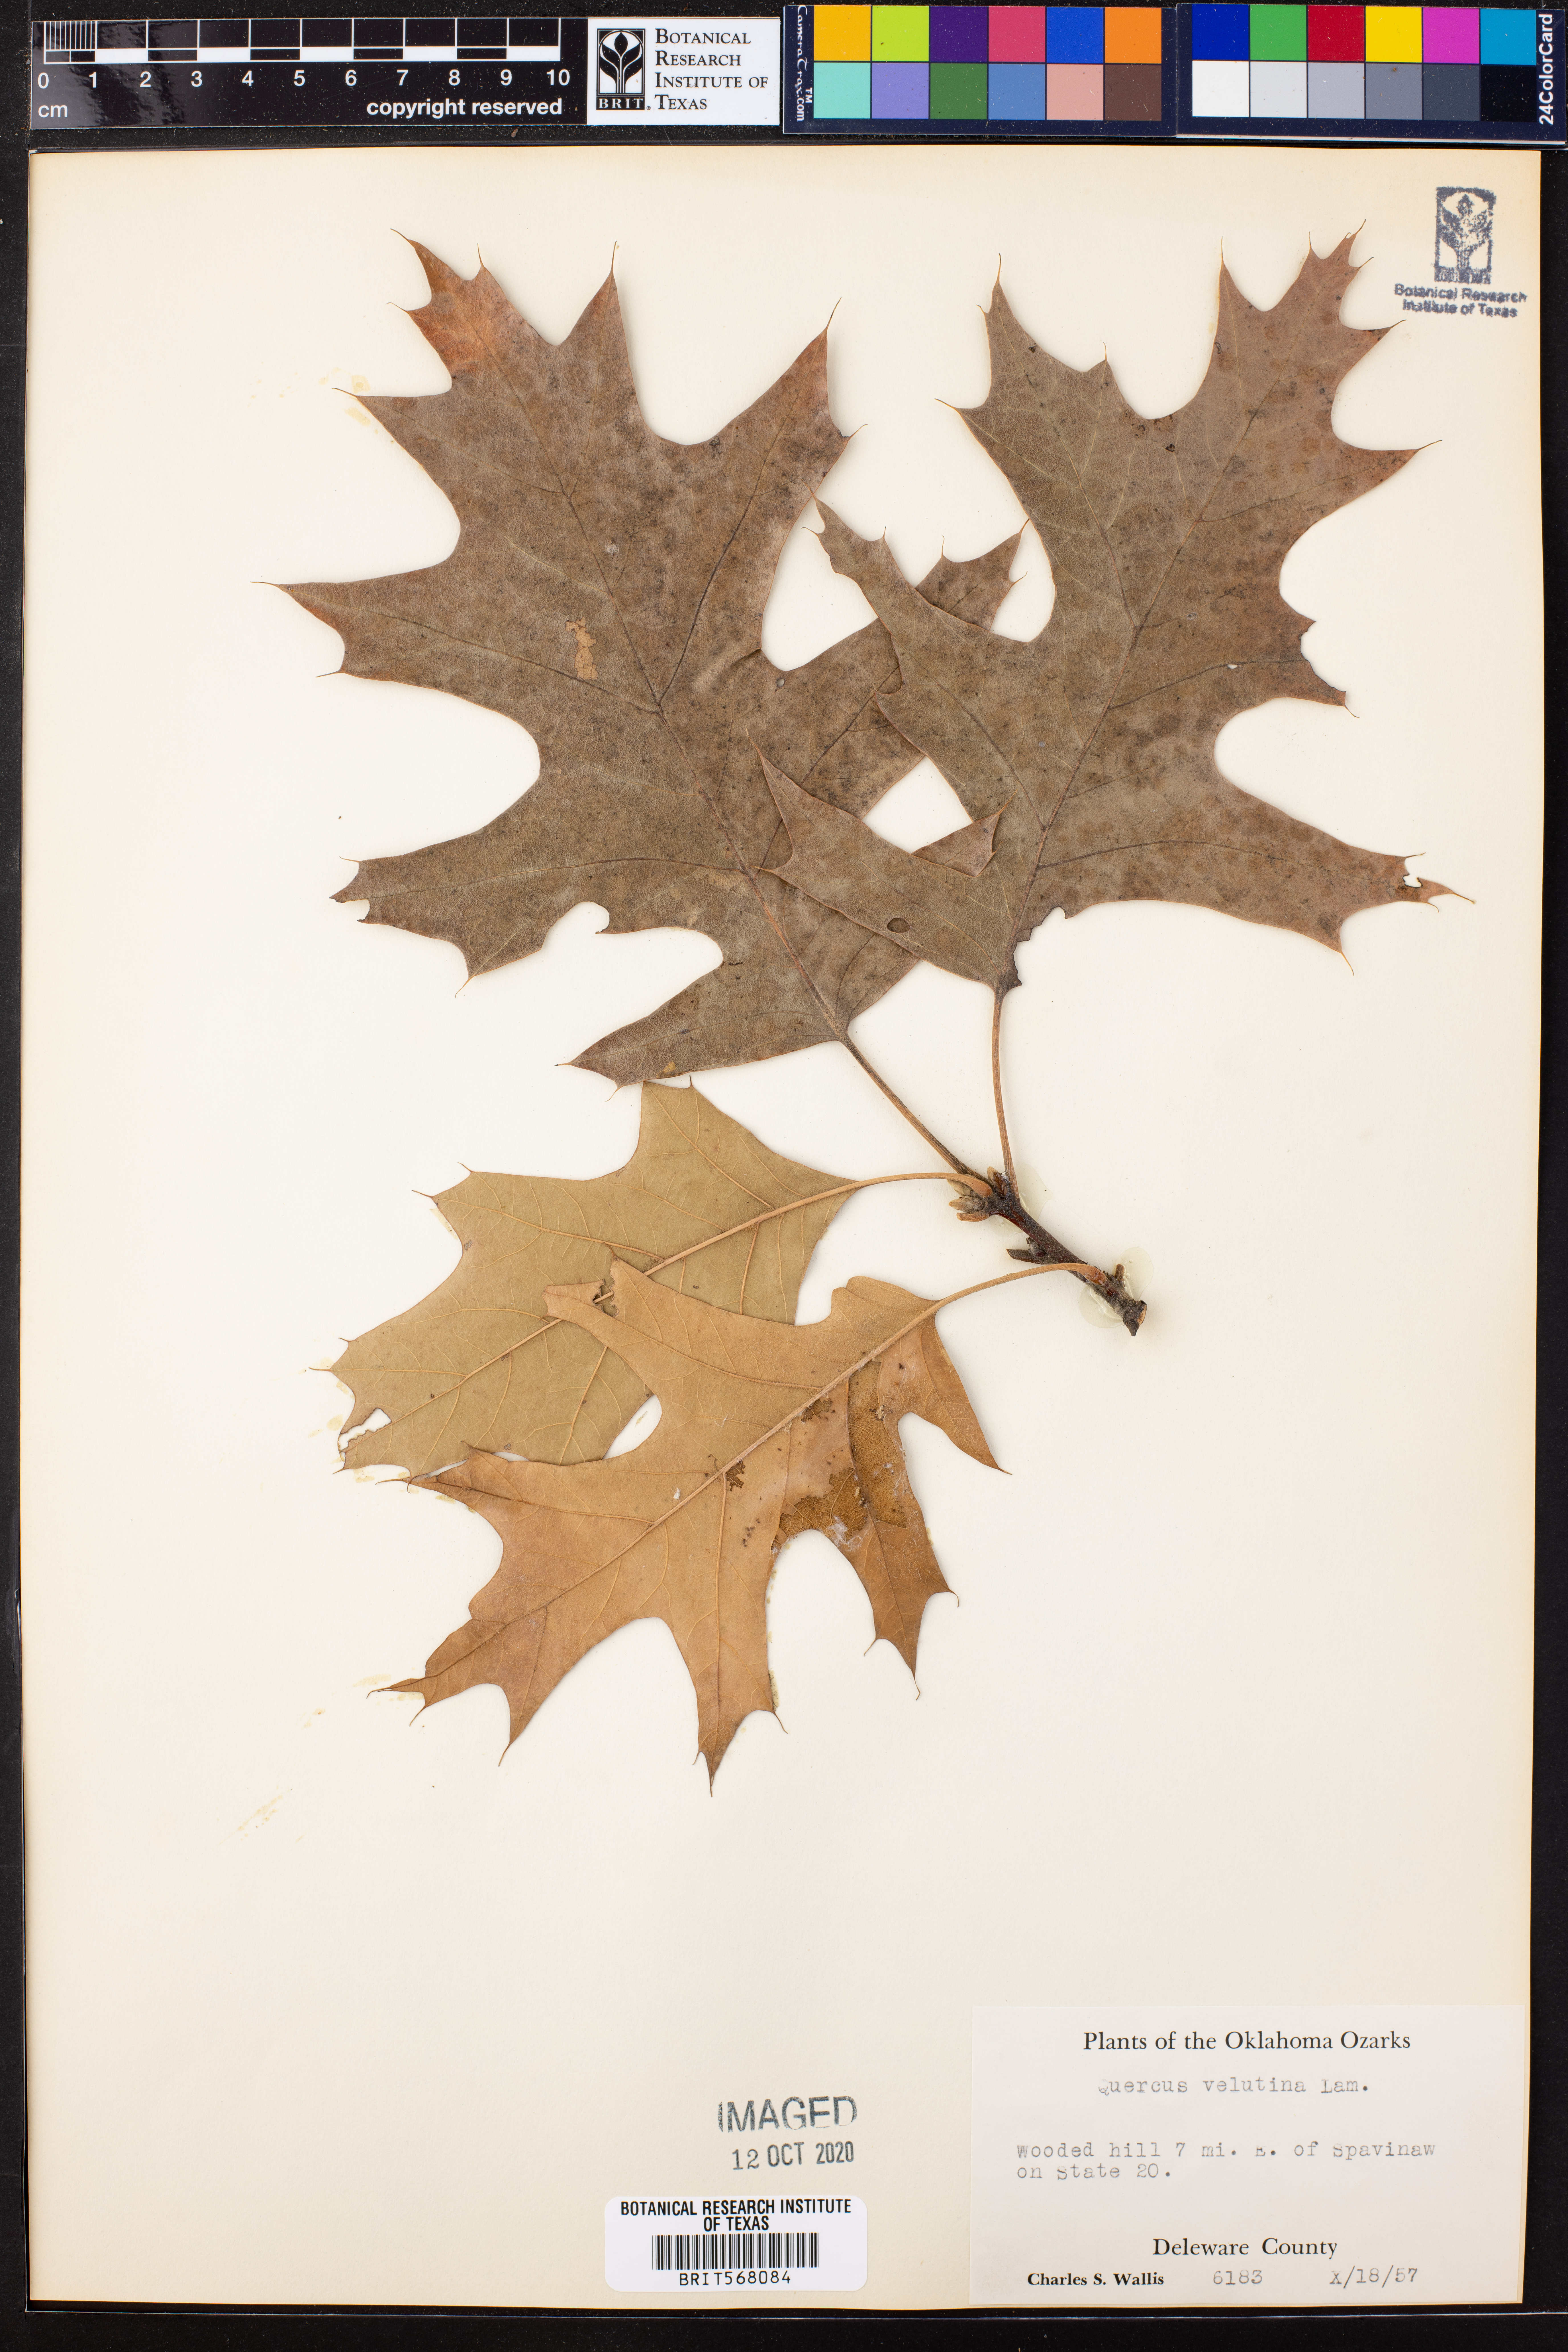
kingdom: Plantae
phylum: Tracheophyta
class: Magnoliopsida
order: Fagales
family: Fagaceae
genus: Quercus
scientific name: Quercus velutina
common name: Black oak
